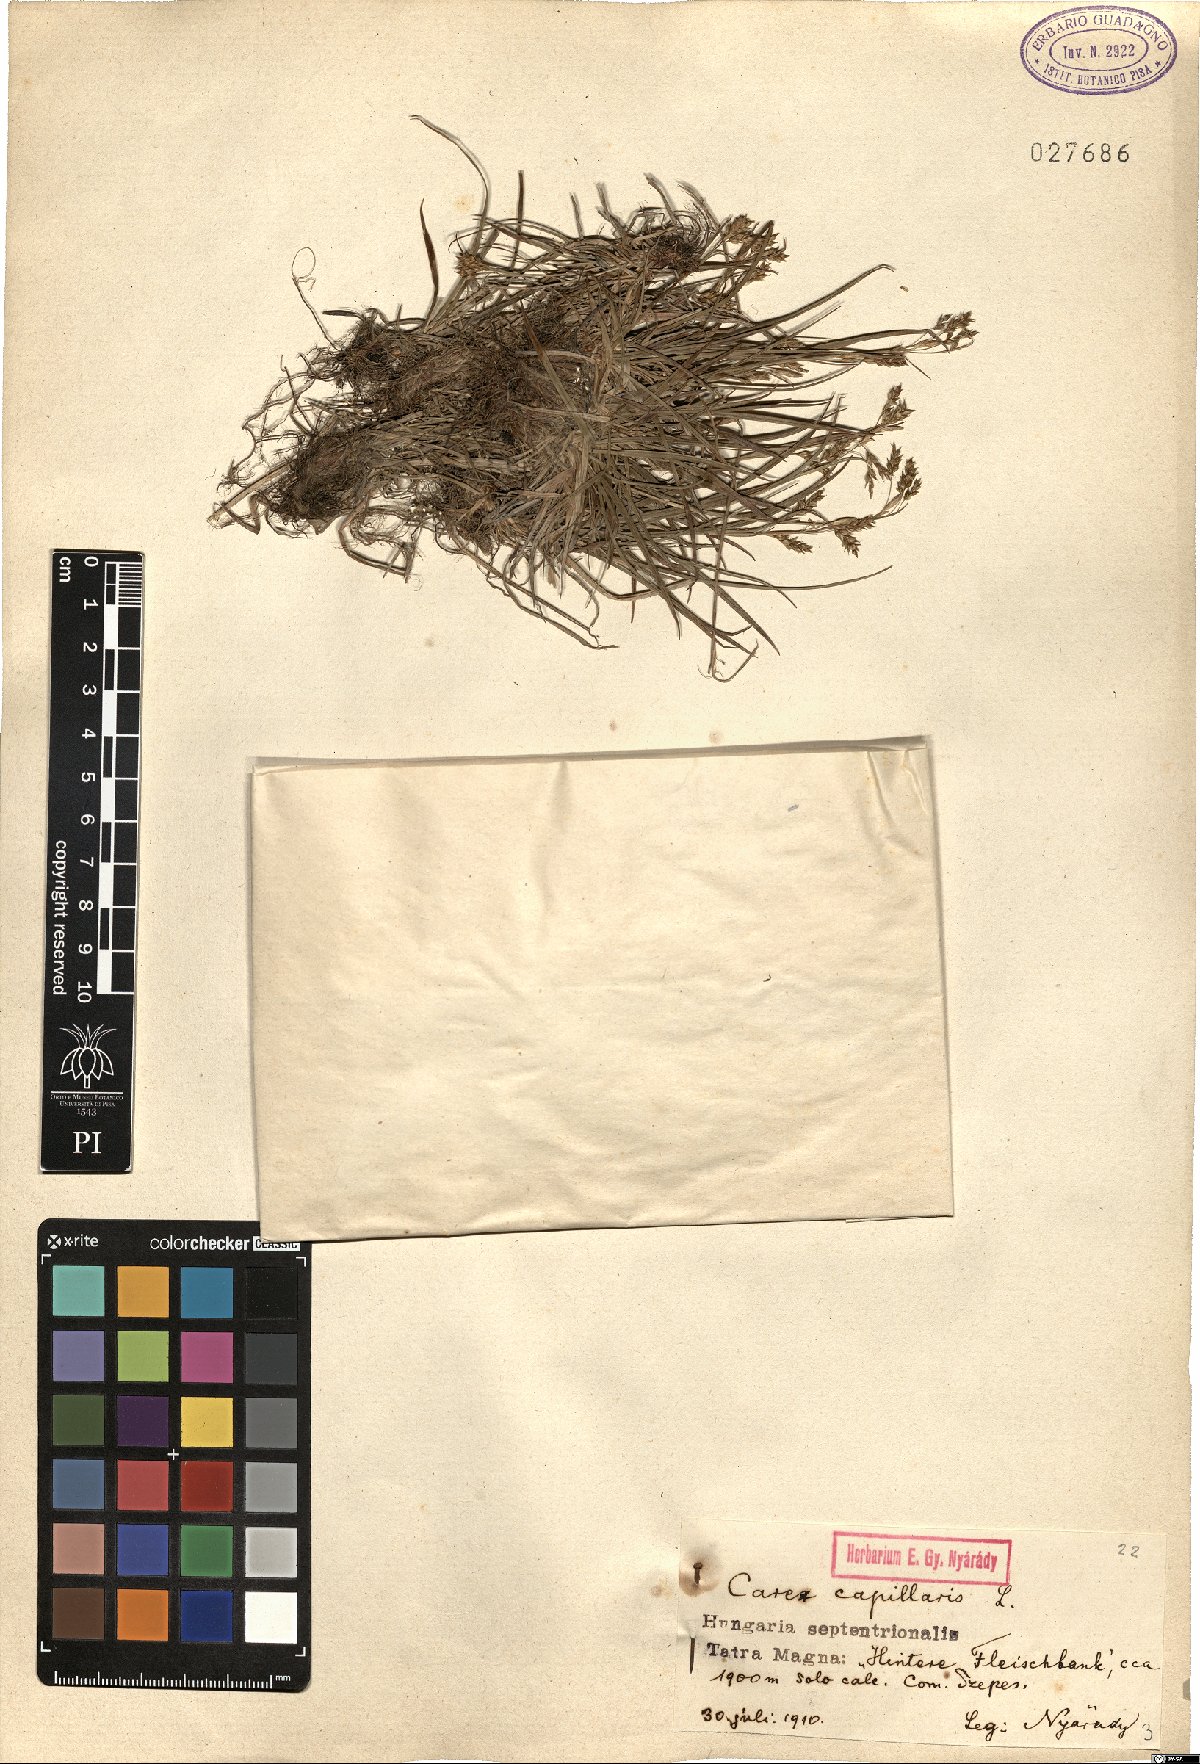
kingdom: Plantae
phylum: Tracheophyta
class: Liliopsida
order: Poales
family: Cyperaceae
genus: Carex
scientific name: Carex capillaris
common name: Hair sedge
